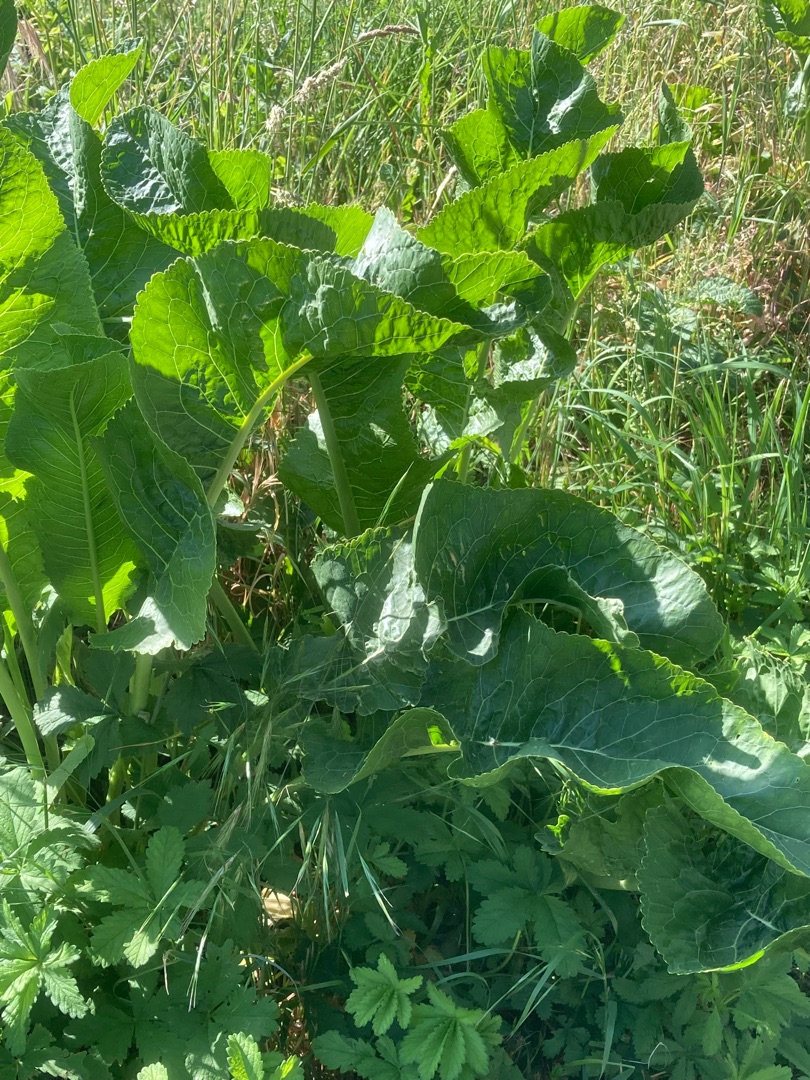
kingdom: Plantae
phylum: Tracheophyta
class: Magnoliopsida
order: Brassicales
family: Brassicaceae
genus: Armoracia
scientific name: Armoracia rusticana
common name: Peberrod
